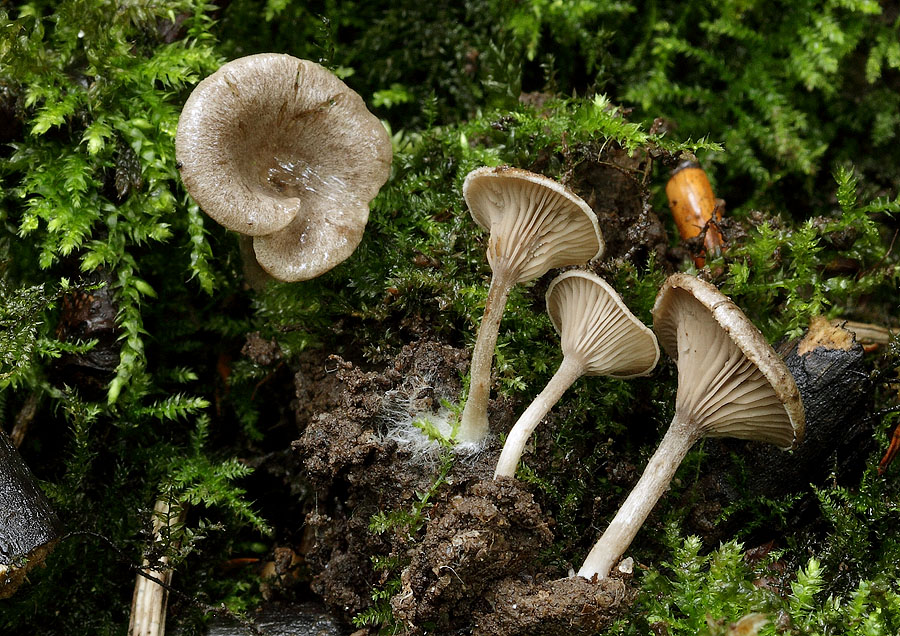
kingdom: Fungi
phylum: Basidiomycota
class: Agaricomycetes
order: Agaricales
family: Entolomataceae
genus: Entoloma
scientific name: Entoloma undatum
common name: bæltet rødblad
